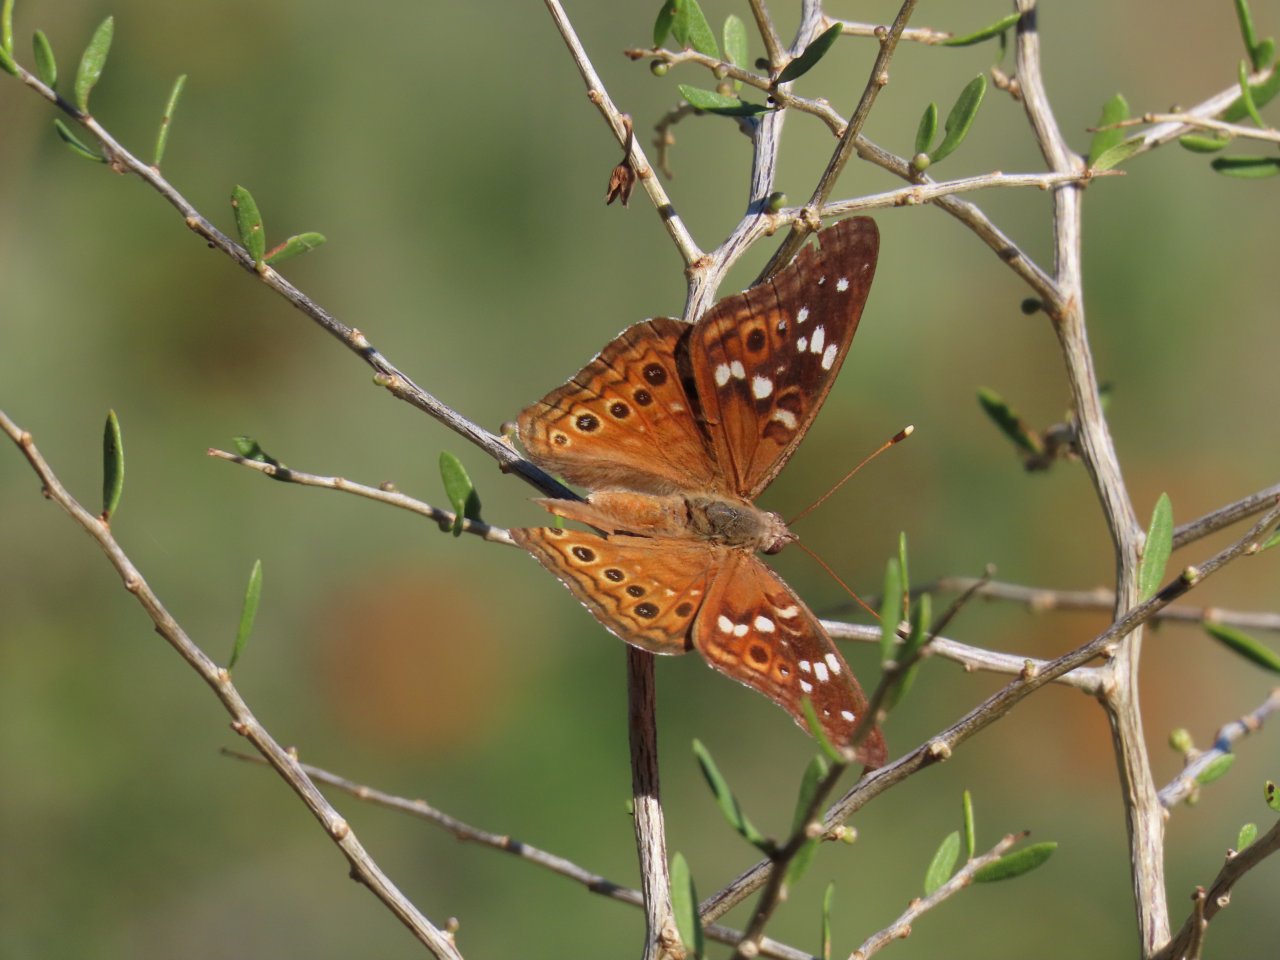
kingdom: Animalia
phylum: Arthropoda
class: Insecta
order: Lepidoptera
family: Nymphalidae
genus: Asterocampa
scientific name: Asterocampa leilia
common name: Empress Leilia
